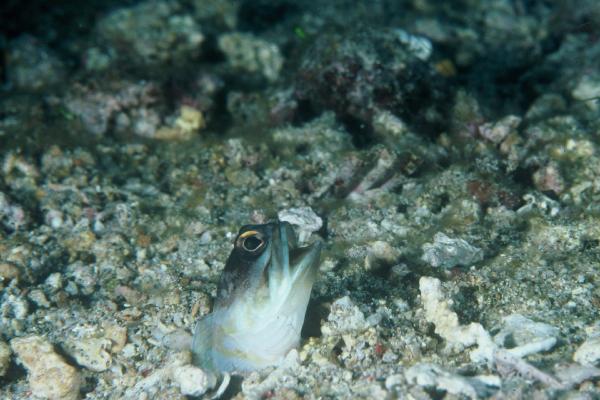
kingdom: Animalia
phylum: Chordata
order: Perciformes
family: Opistognathidae
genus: Opistognathus
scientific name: Opistognathus
